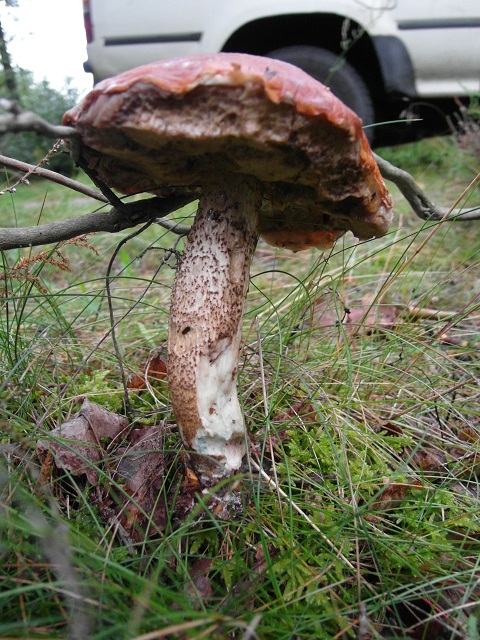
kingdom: Fungi
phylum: Basidiomycota
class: Agaricomycetes
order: Boletales
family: Boletaceae
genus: Leccinum
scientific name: Leccinum aurantiacum
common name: rustrød skælrørhat
